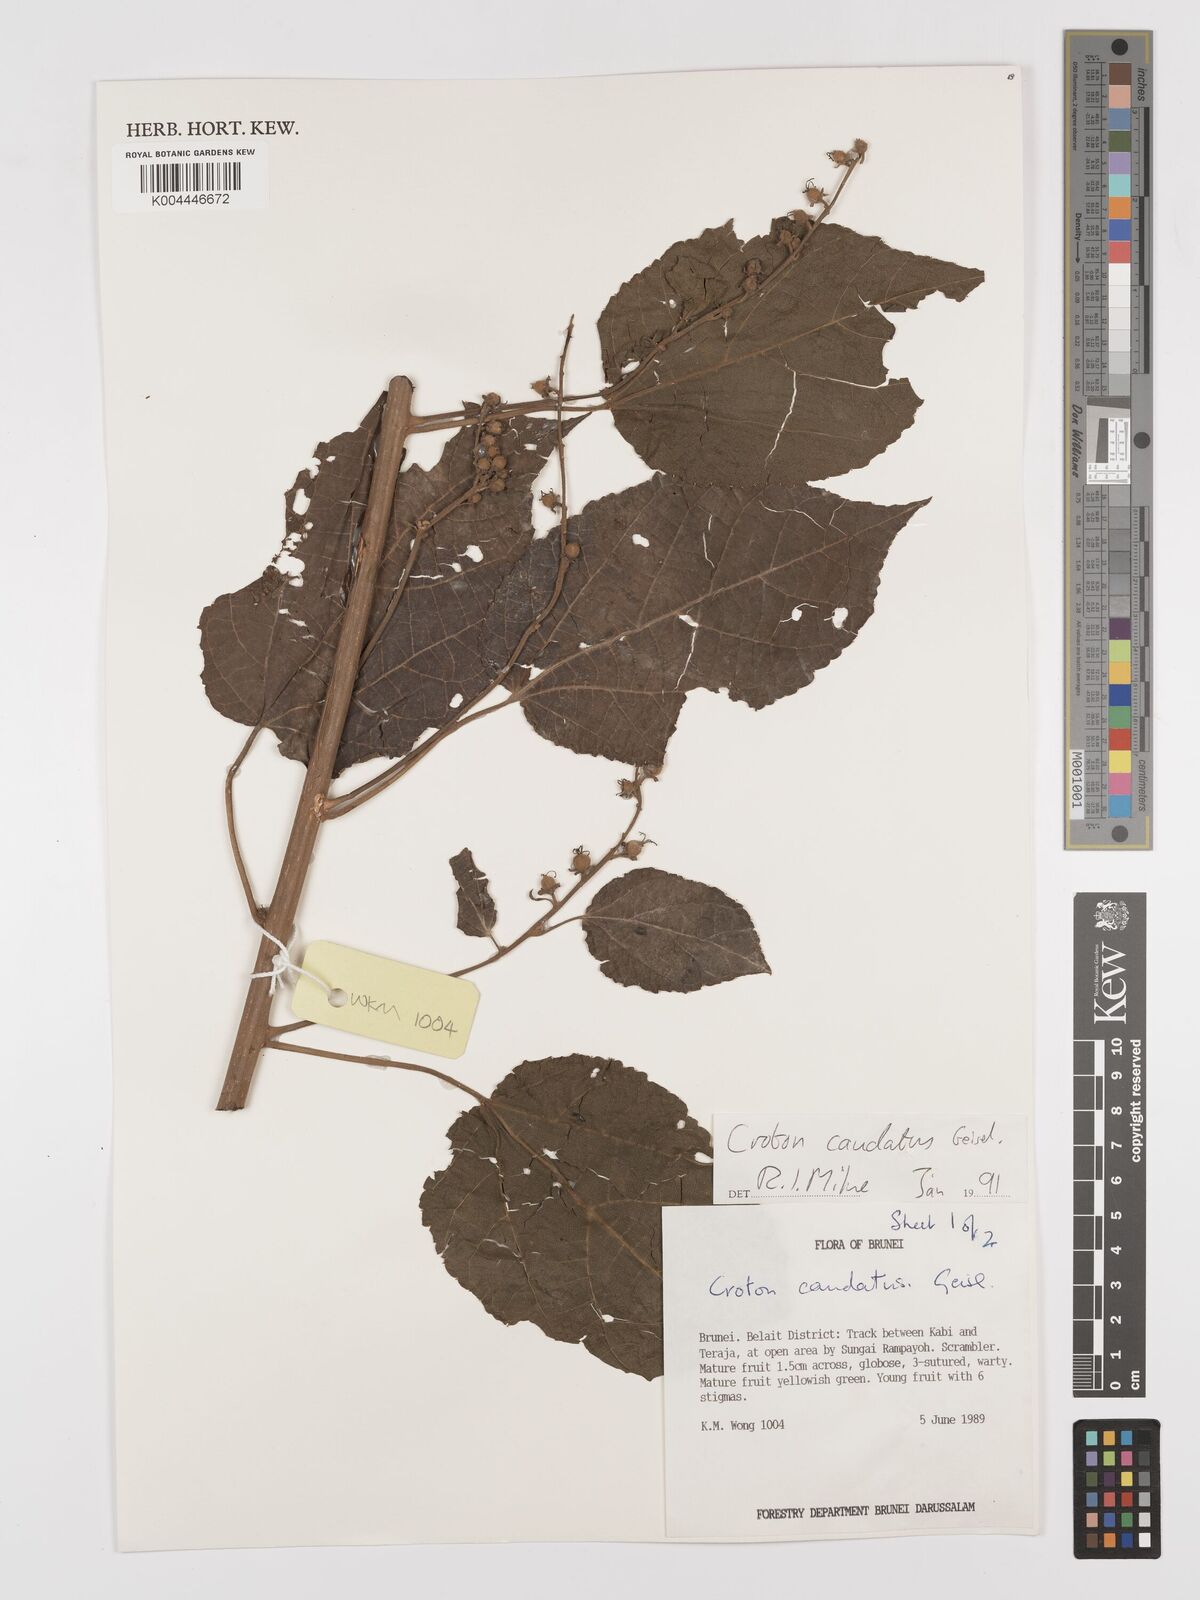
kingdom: Plantae
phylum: Tracheophyta
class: Magnoliopsida
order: Malpighiales
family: Euphorbiaceae
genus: Croton
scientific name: Croton caudatus
